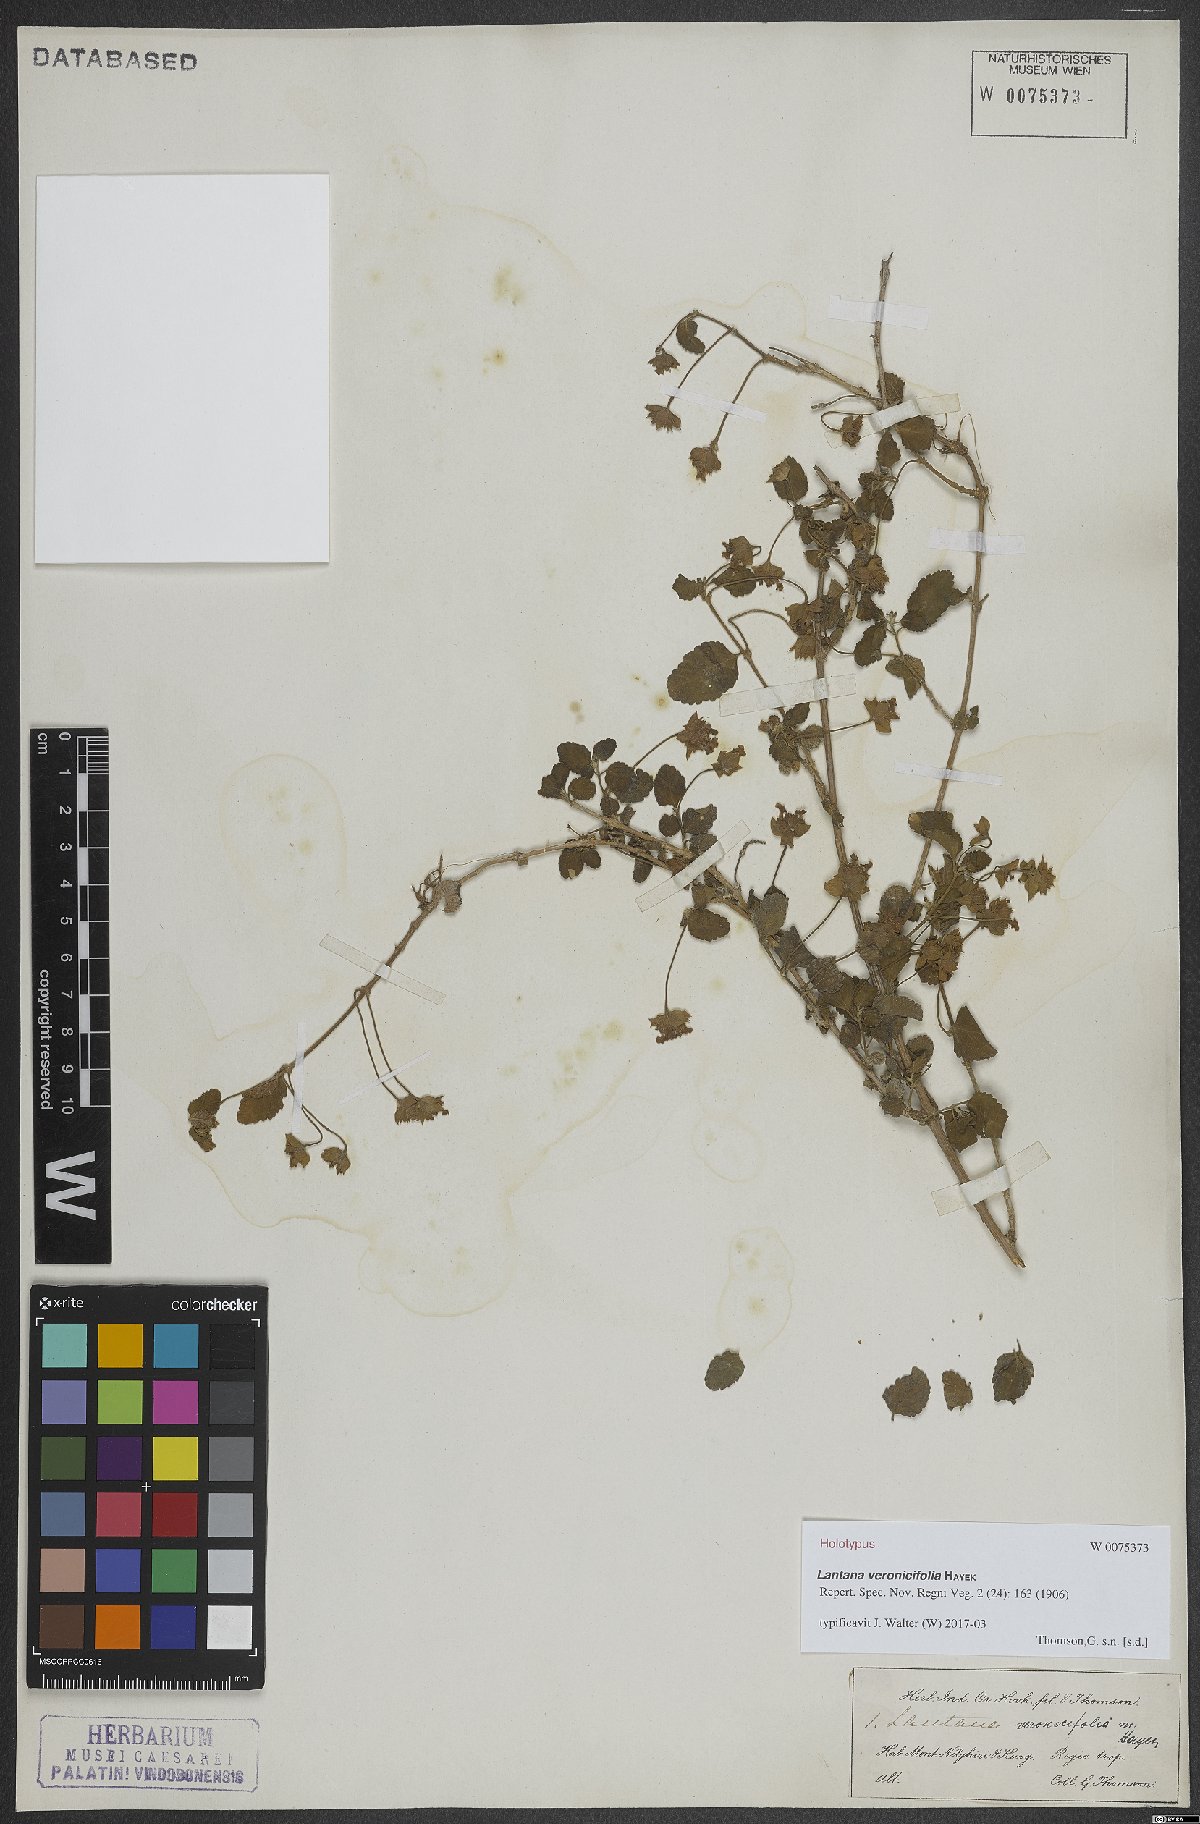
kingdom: Plantae
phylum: Tracheophyta
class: Magnoliopsida
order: Lamiales
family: Verbenaceae
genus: Lantana
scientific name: Lantana veronicifolia
